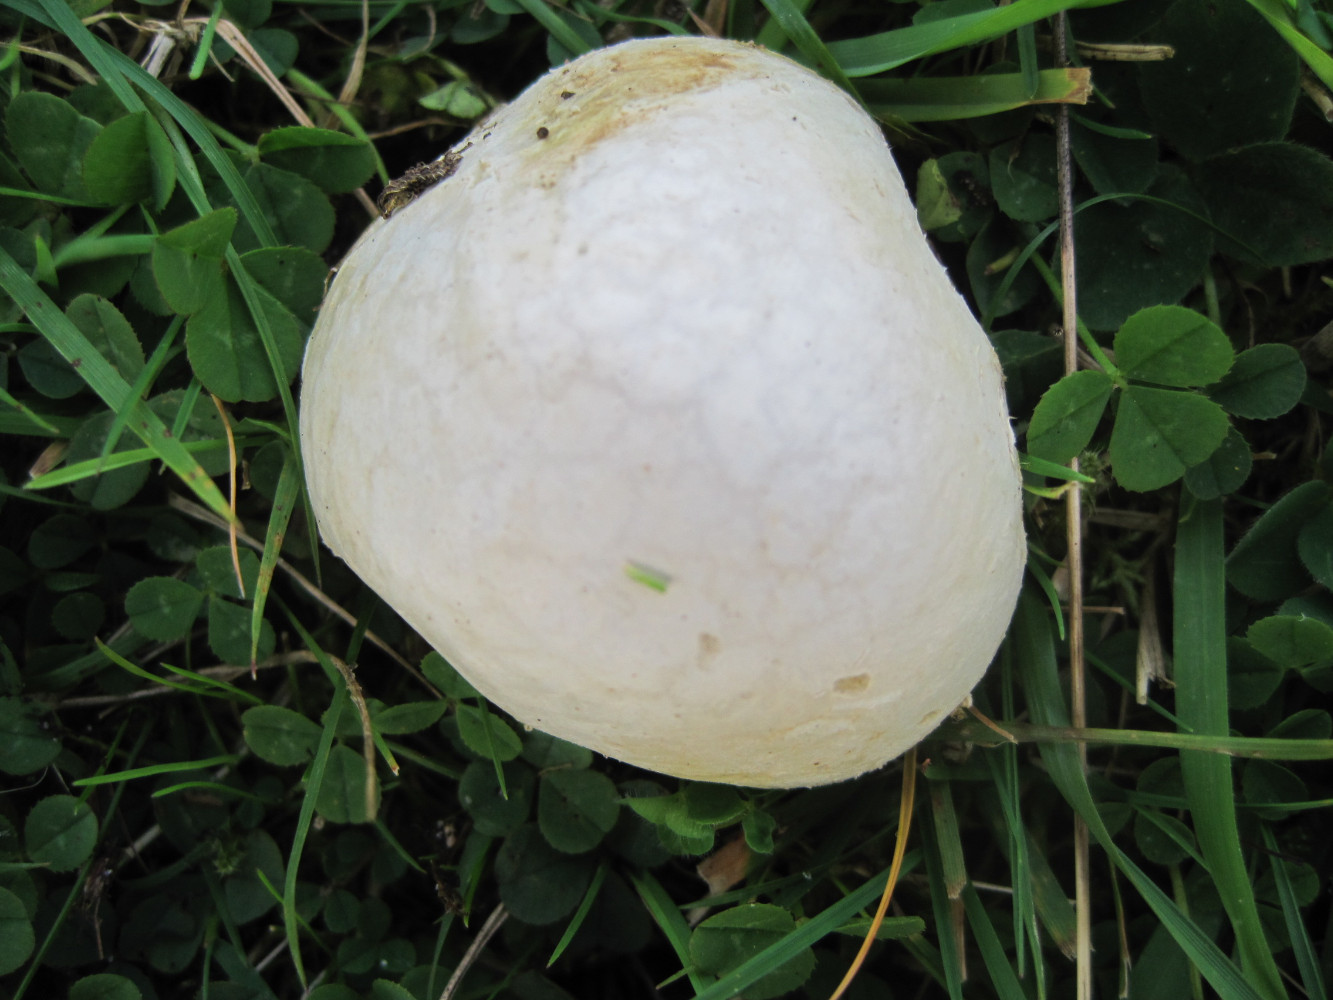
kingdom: Fungi
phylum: Basidiomycota
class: Agaricomycetes
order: Agaricales
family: Lycoperdaceae
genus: Bovista
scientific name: Bovista plumbea
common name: blygrå bovist
